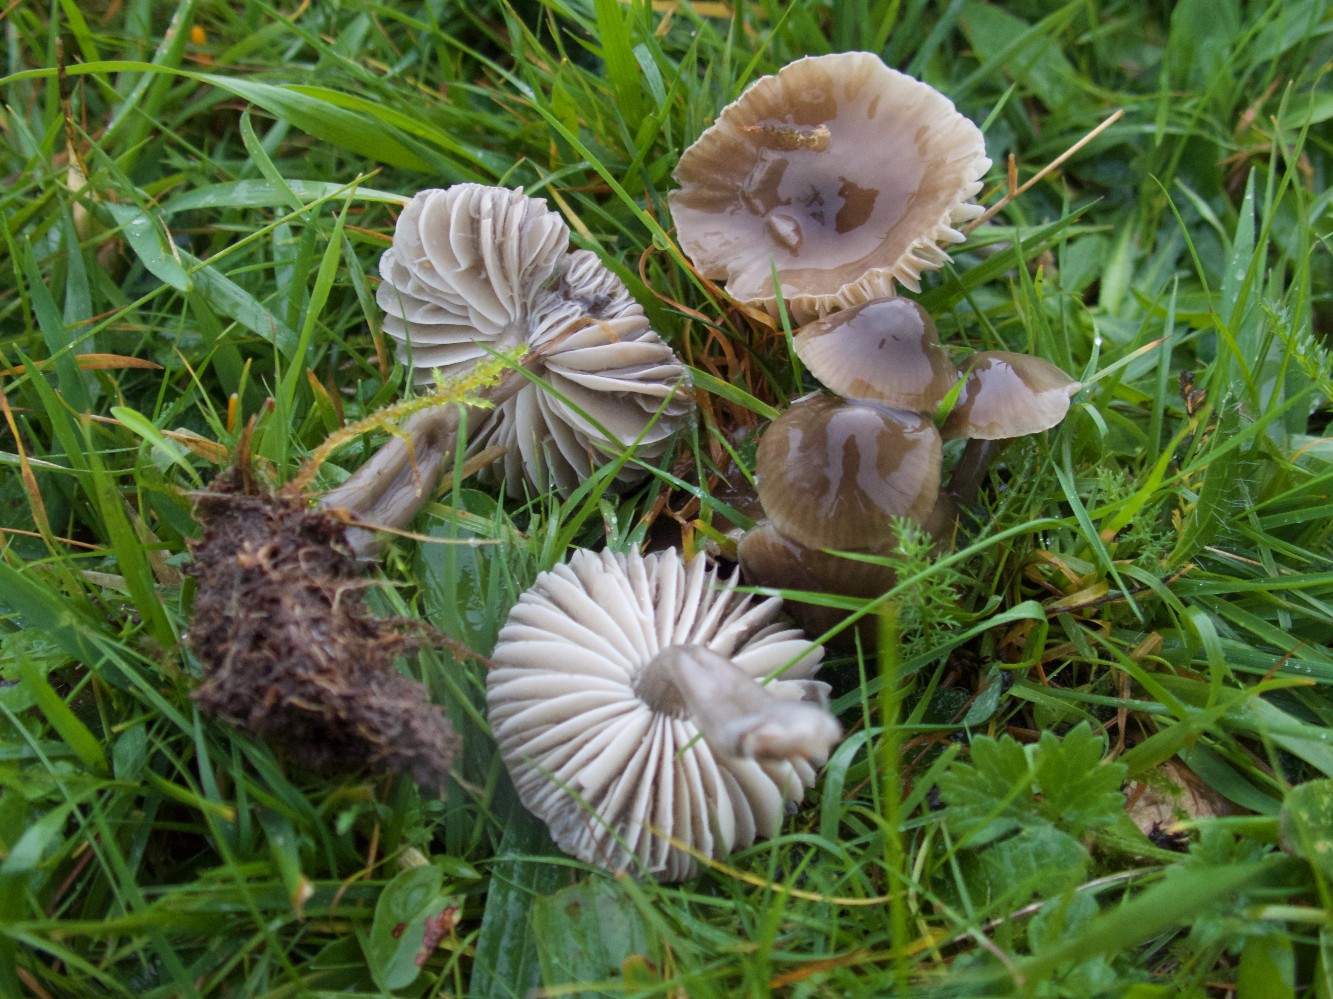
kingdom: Fungi
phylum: Basidiomycota
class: Agaricomycetes
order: Agaricales
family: Hygrophoraceae
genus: Gliophorus
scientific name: Gliophorus irrigatus
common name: slimet vokshat
